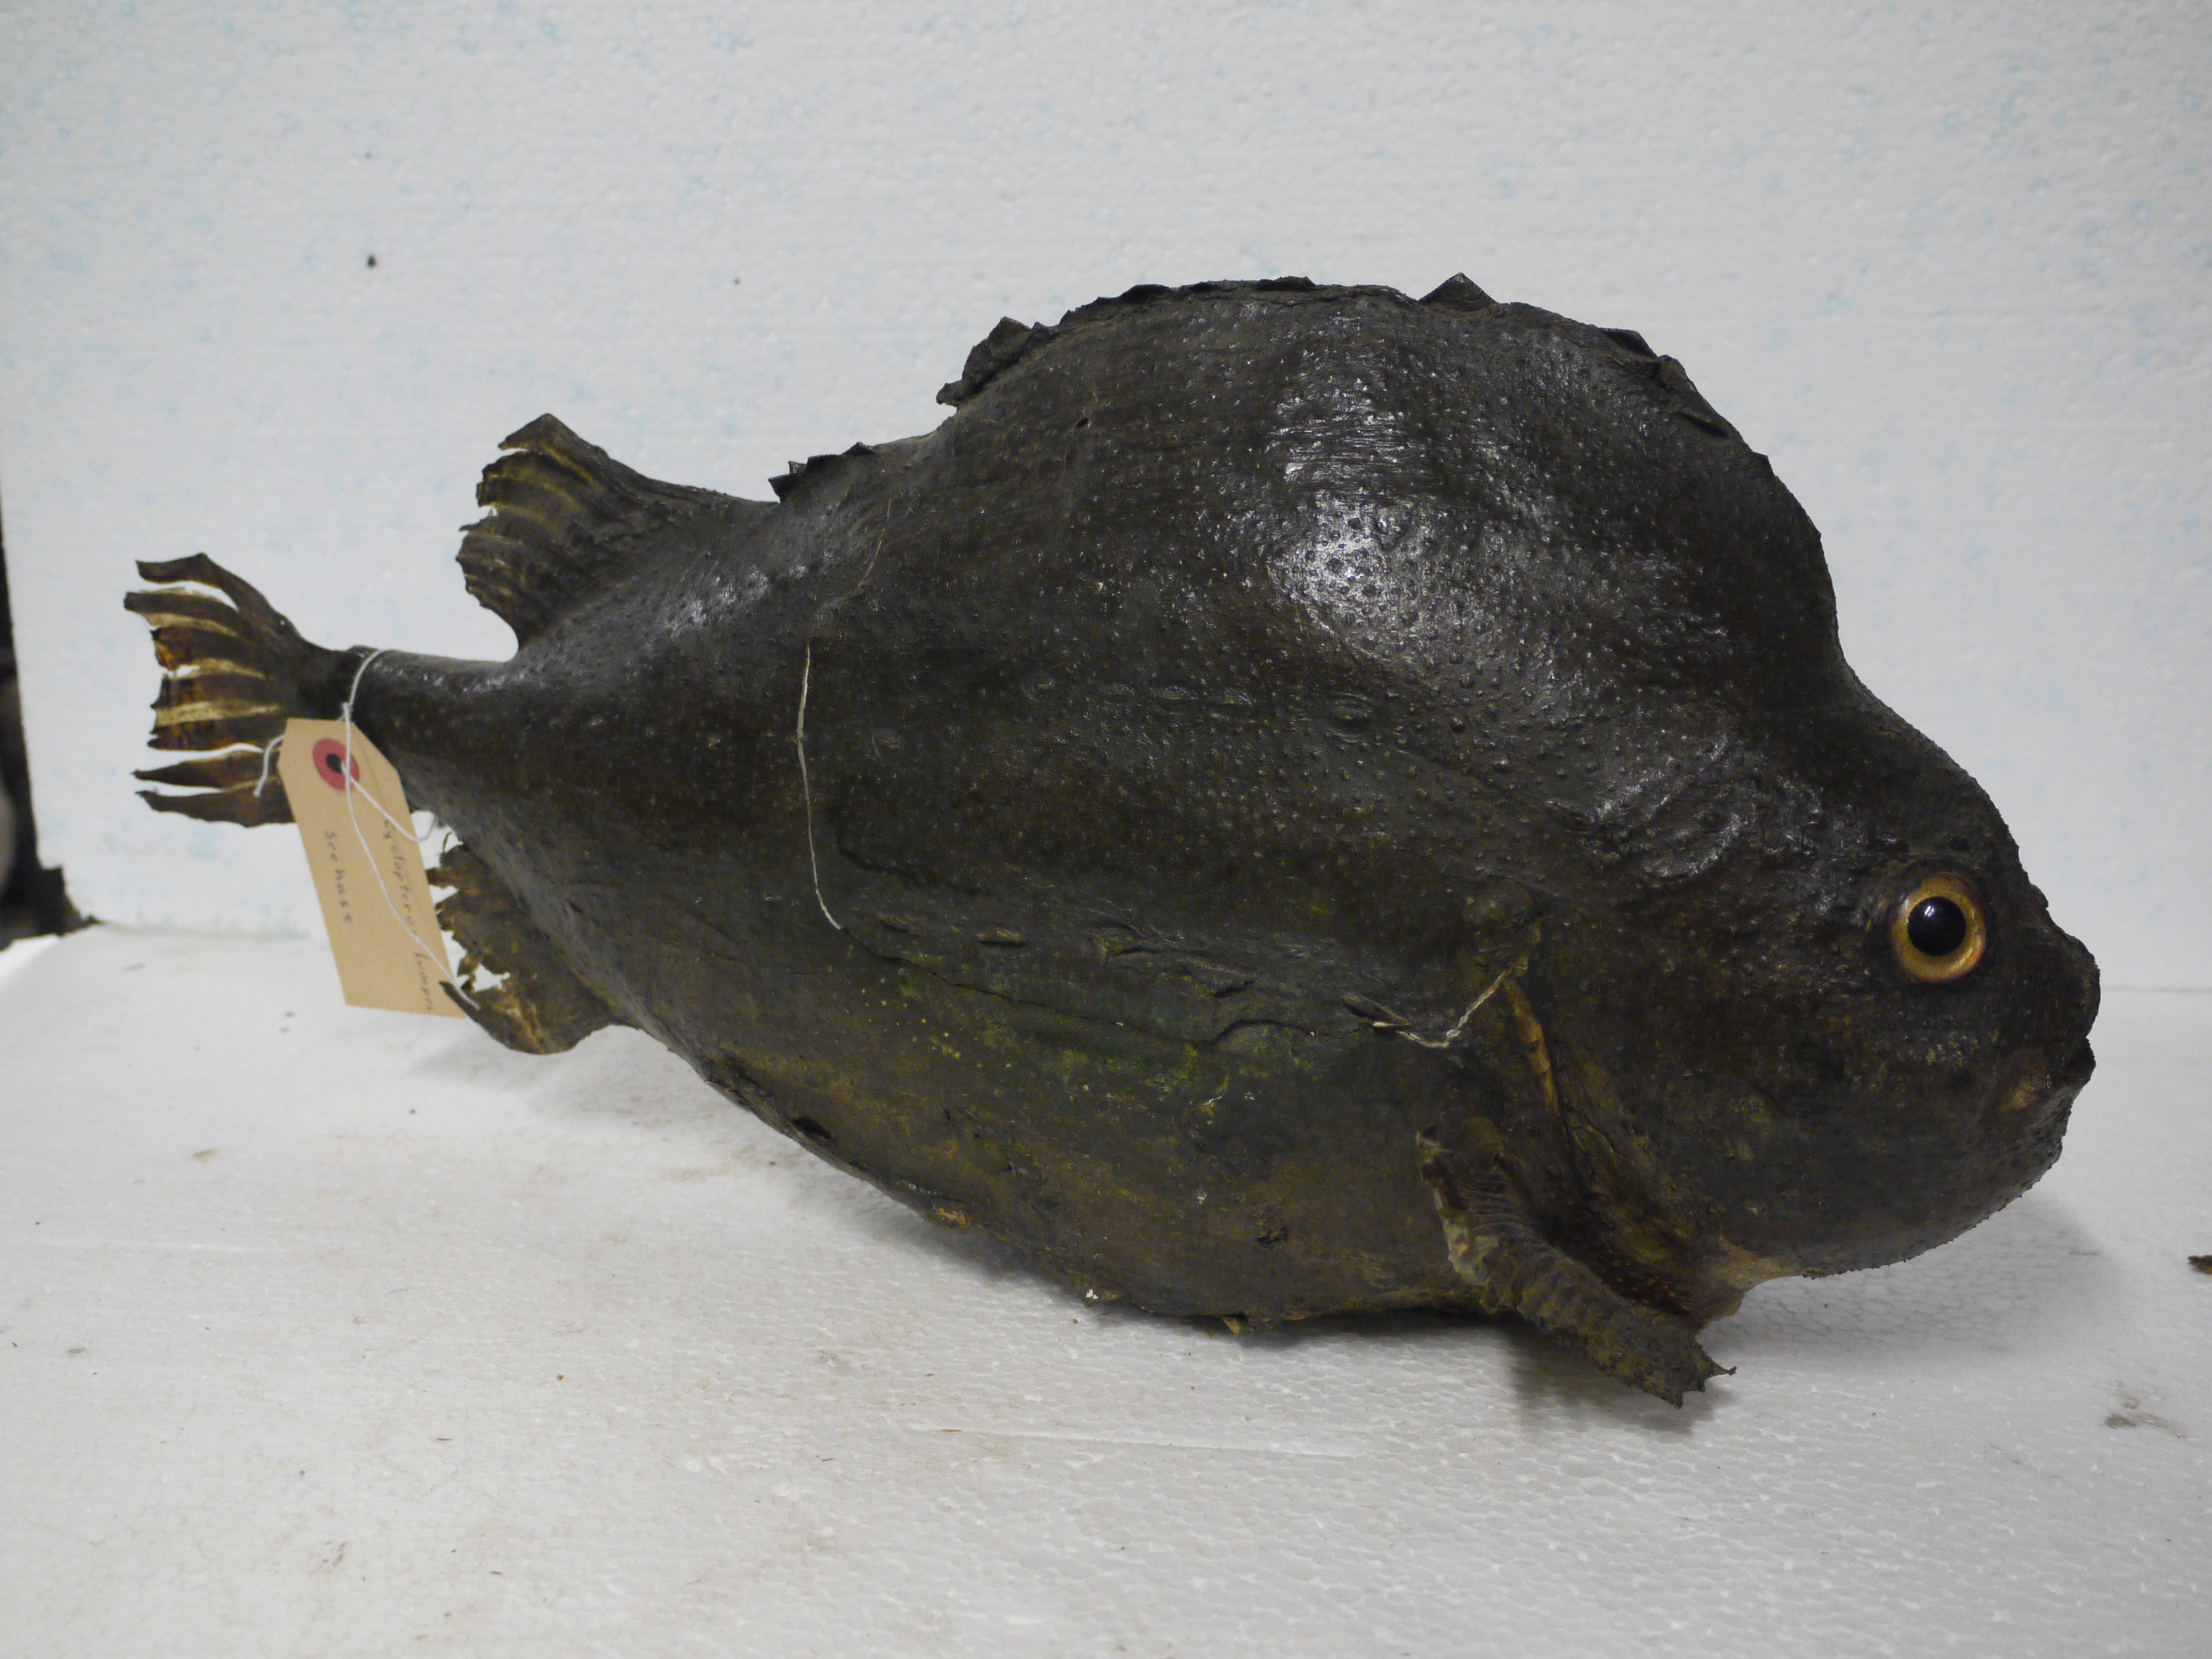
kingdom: Animalia
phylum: Chordata
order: Scorpaeniformes
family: Cyclopteridae
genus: Cyclopterus
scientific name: Cyclopterus lumpus
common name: Lumpsucker
